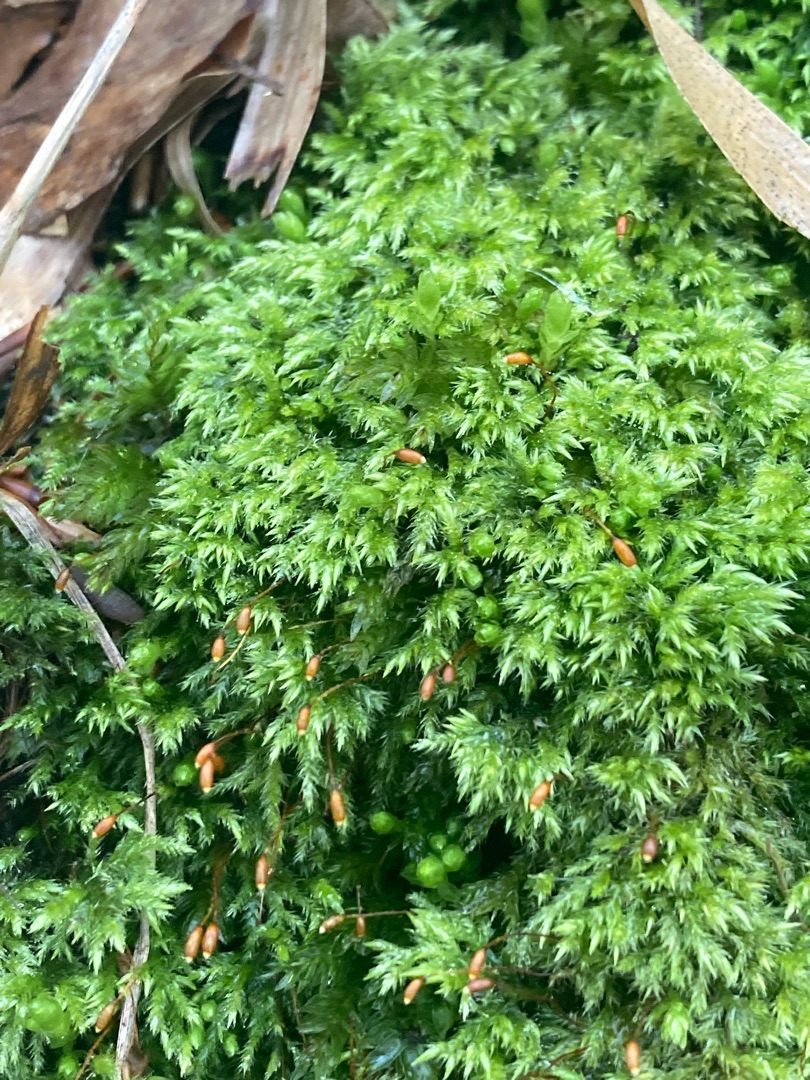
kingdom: Plantae
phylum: Bryophyta
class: Bryopsida
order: Hypnales
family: Lembophyllaceae
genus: Pseudisothecium
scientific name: Pseudisothecium myosuroides
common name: Slank stammemos
